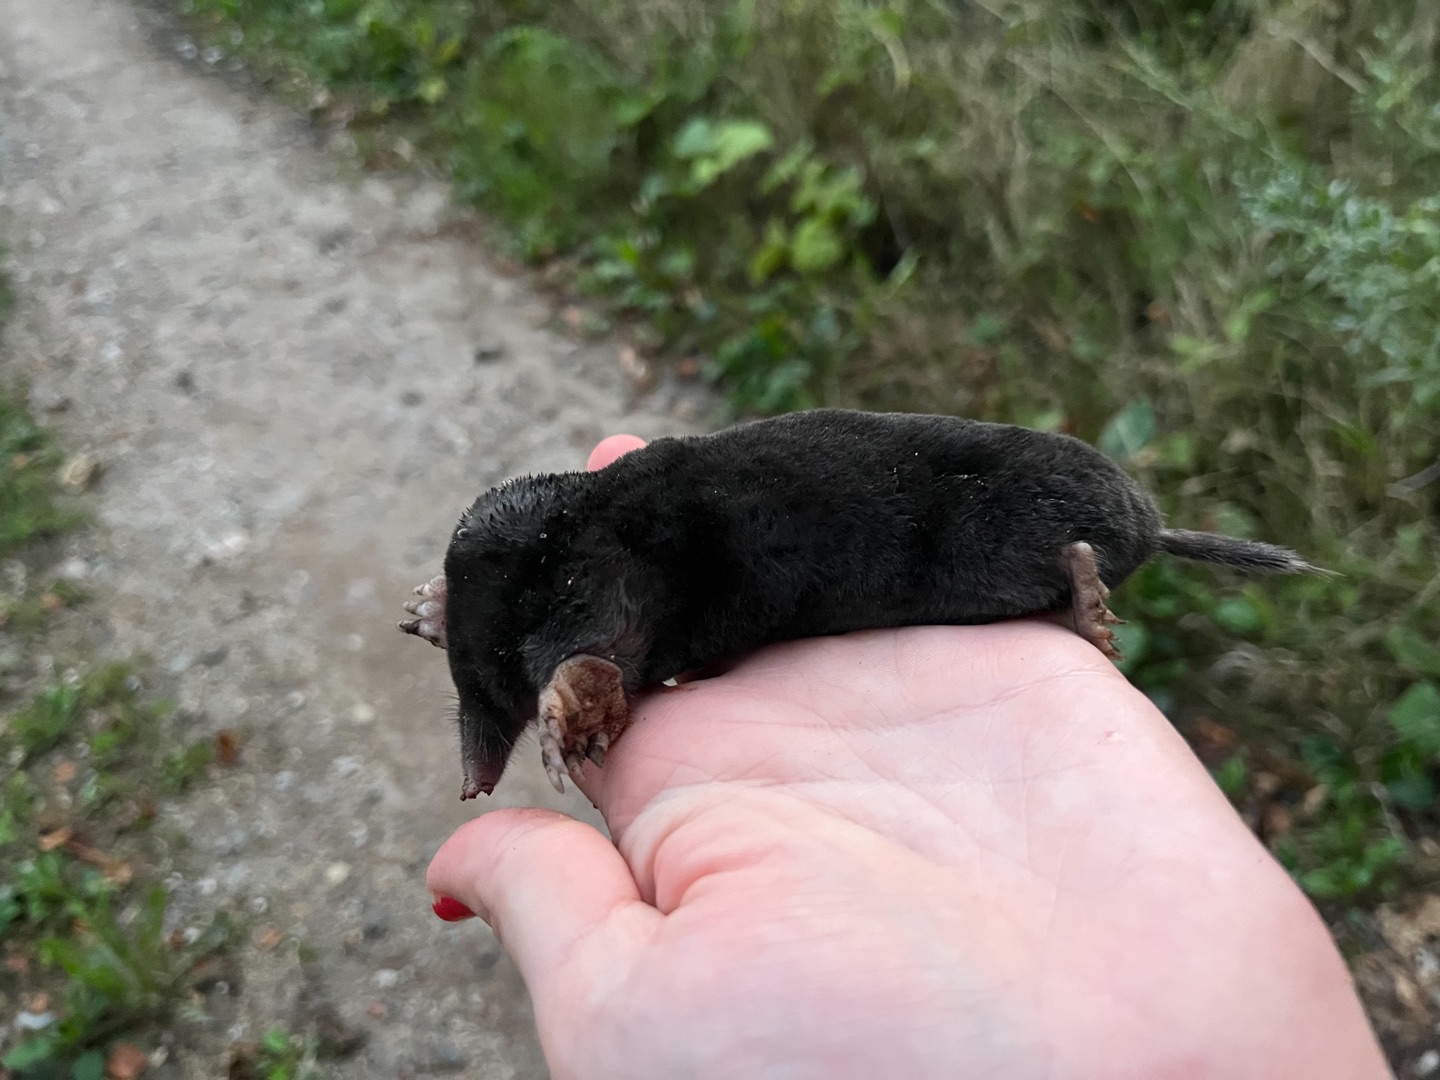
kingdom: Animalia
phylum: Chordata
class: Mammalia
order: Soricomorpha
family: Talpidae
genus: Talpa
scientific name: Talpa europaea
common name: Muldvarp
